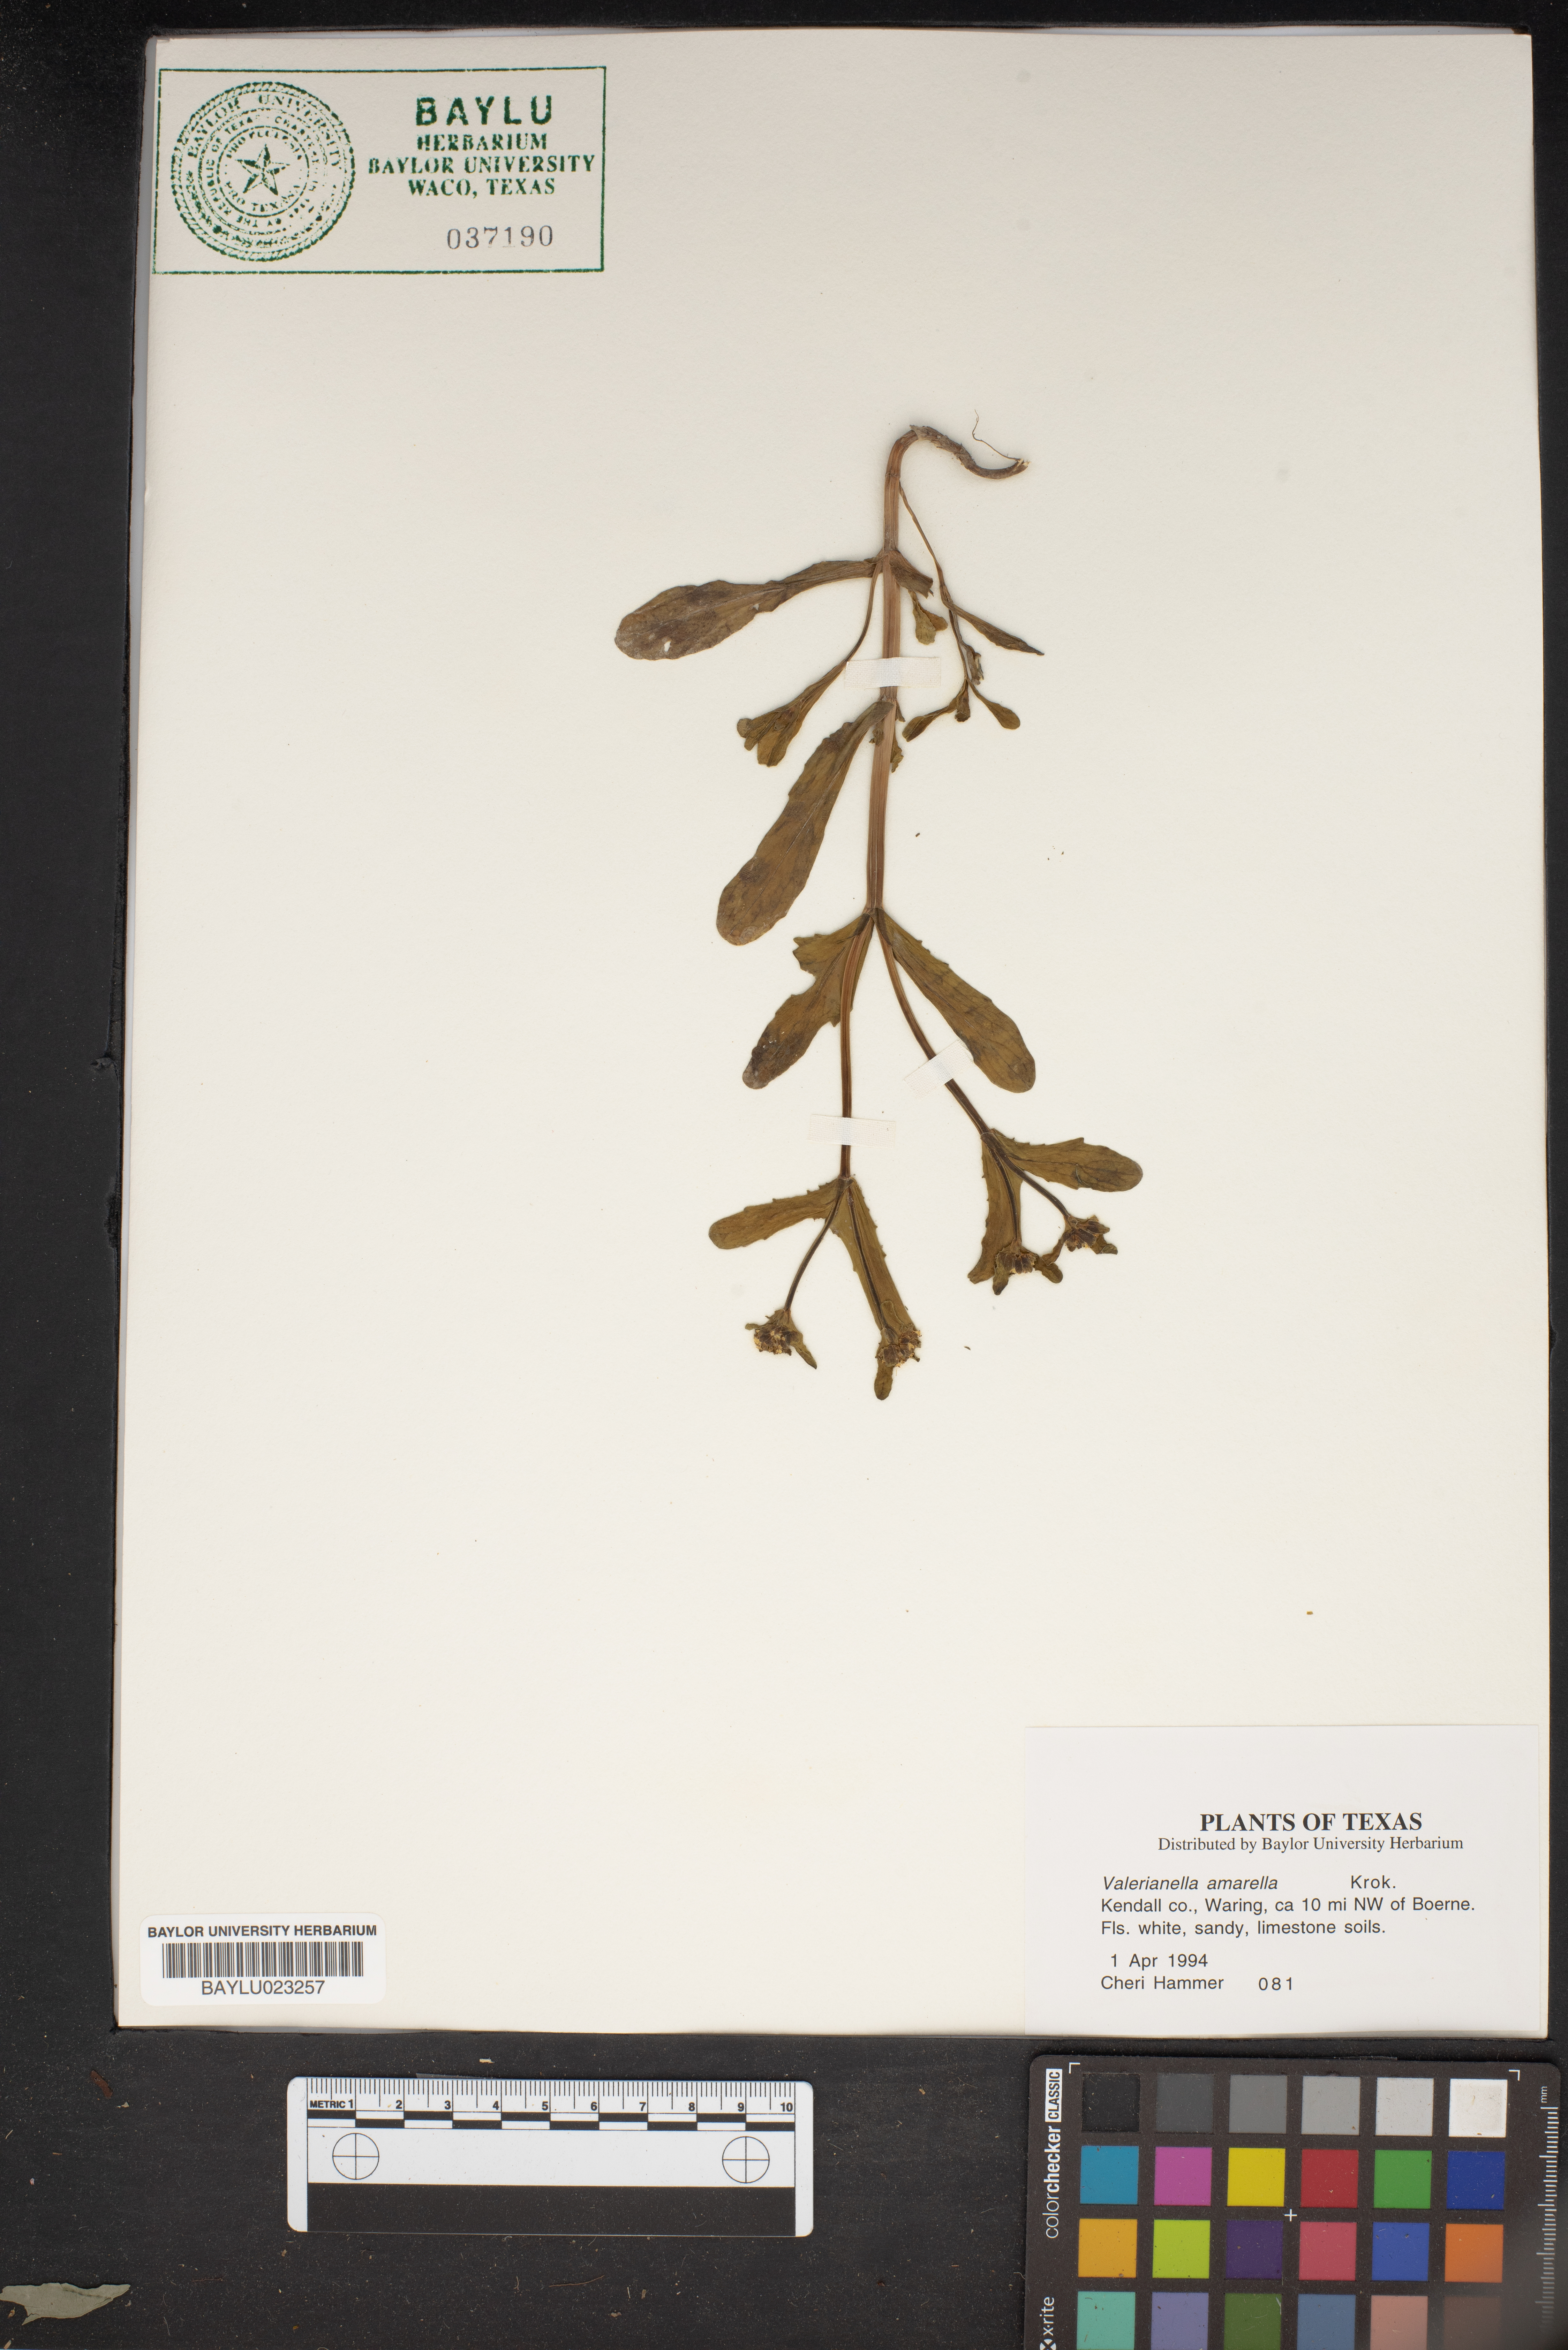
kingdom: Plantae
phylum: Tracheophyta
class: Magnoliopsida
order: Dipsacales
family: Caprifoliaceae
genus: Valerianella
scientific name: Valerianella amarella
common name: Hariy cornsalad
